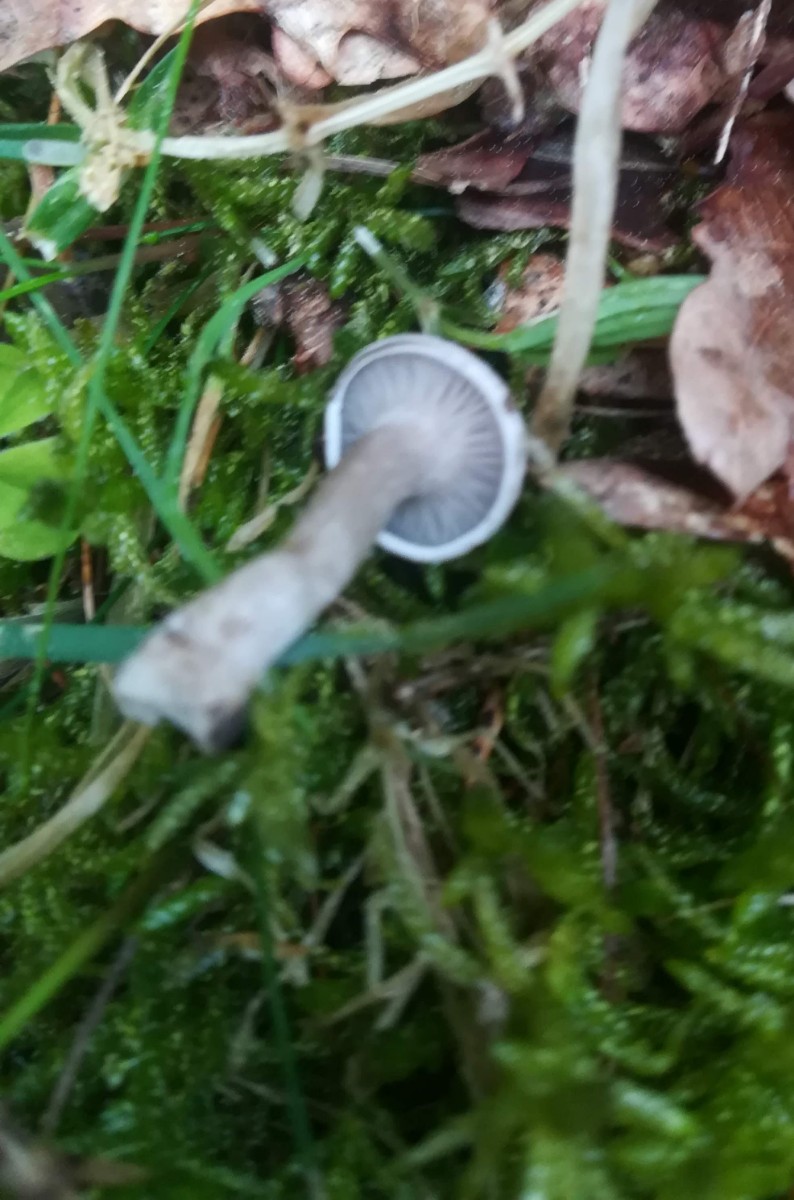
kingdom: Fungi
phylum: Basidiomycota
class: Agaricomycetes
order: Agaricales
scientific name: Agaricales
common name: champignonordenen
